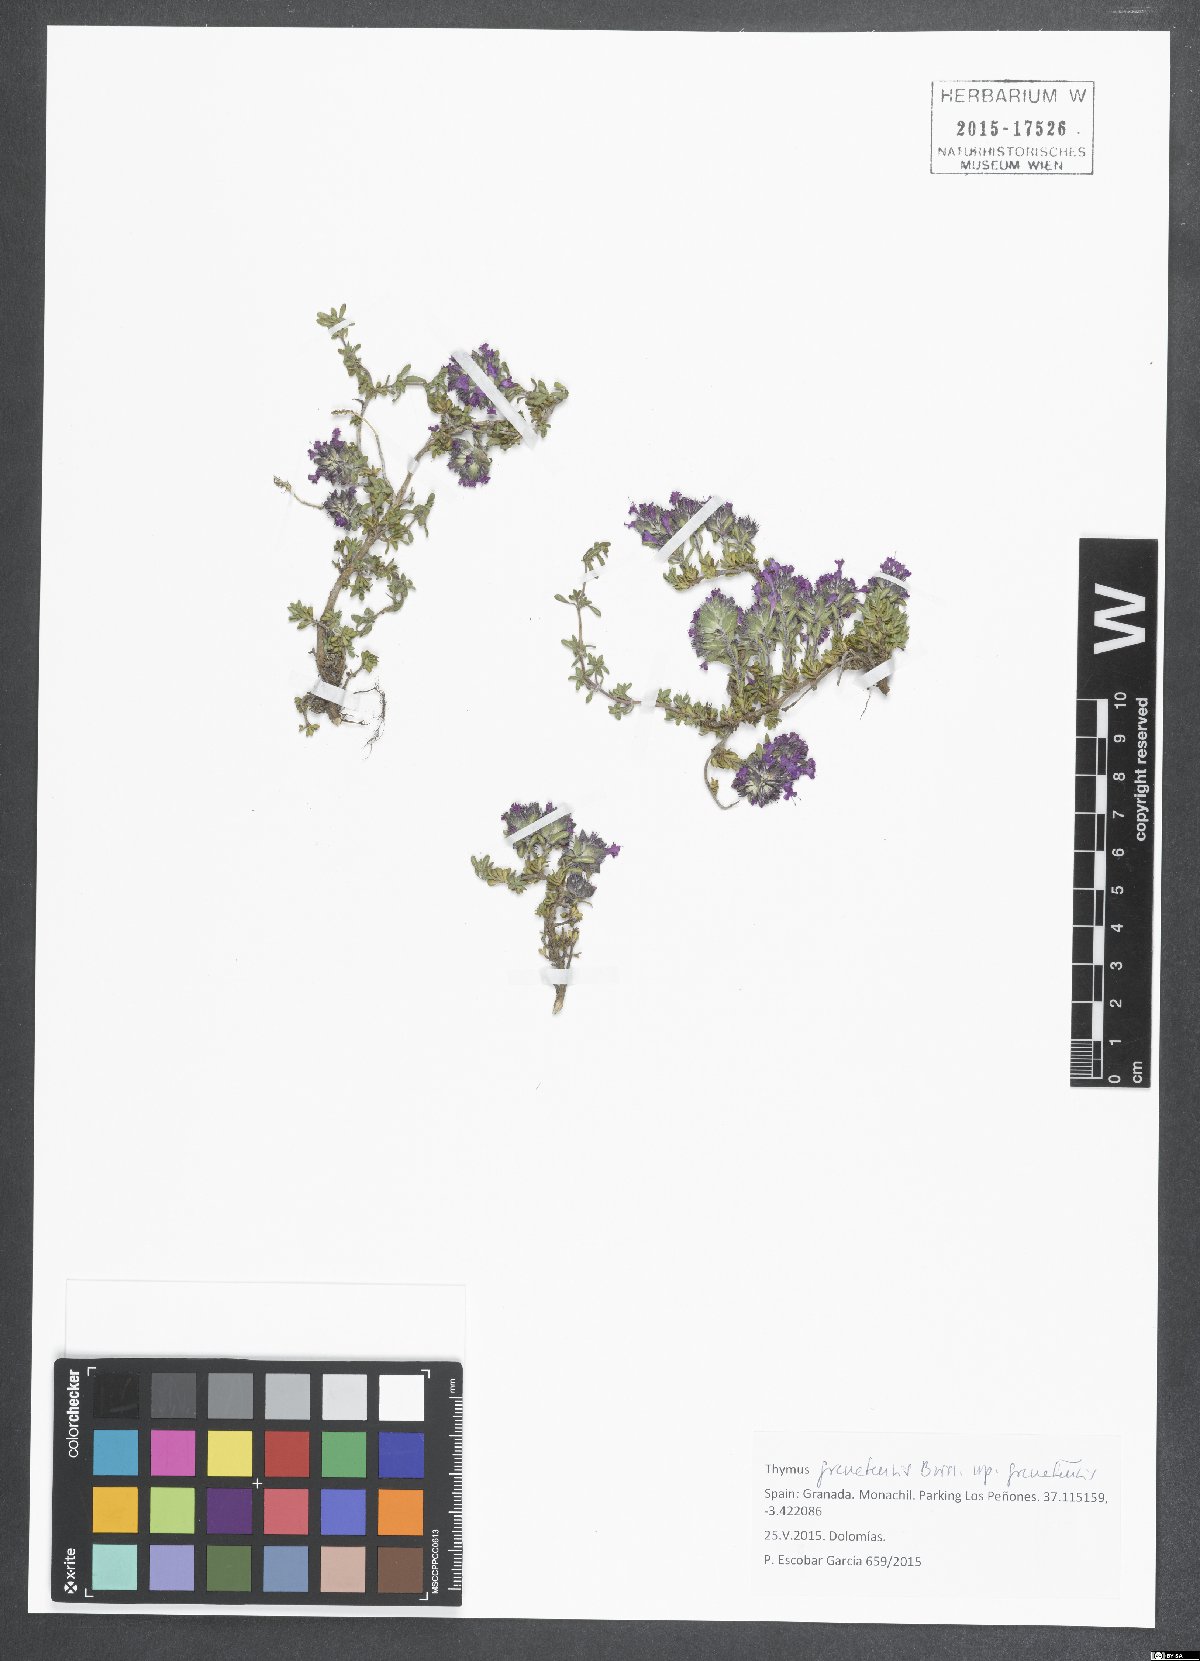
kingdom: Plantae
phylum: Tracheophyta
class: Magnoliopsida
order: Lamiales
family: Lamiaceae
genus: Thymus
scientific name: Thymus granatensis
